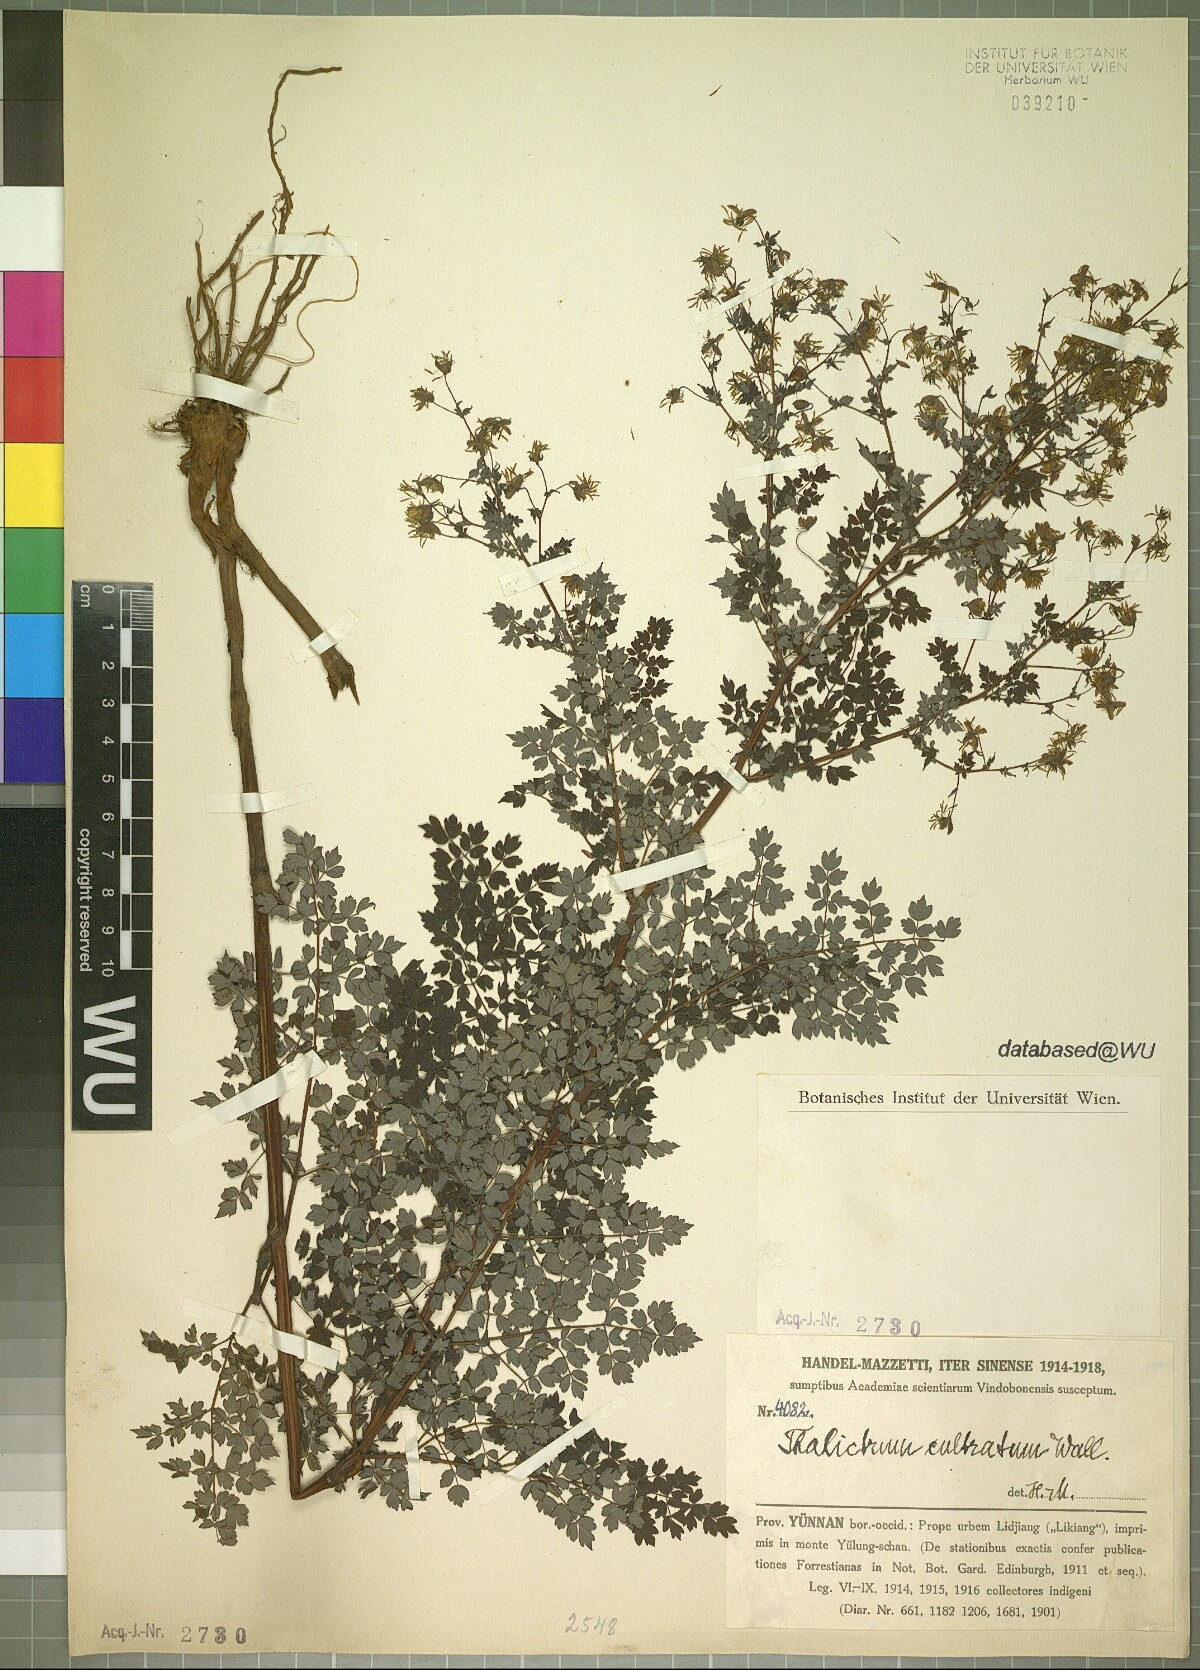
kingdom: Plantae
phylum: Tracheophyta
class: Magnoliopsida
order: Ranunculales
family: Ranunculaceae
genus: Thalictrum
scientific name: Thalictrum cultratum
